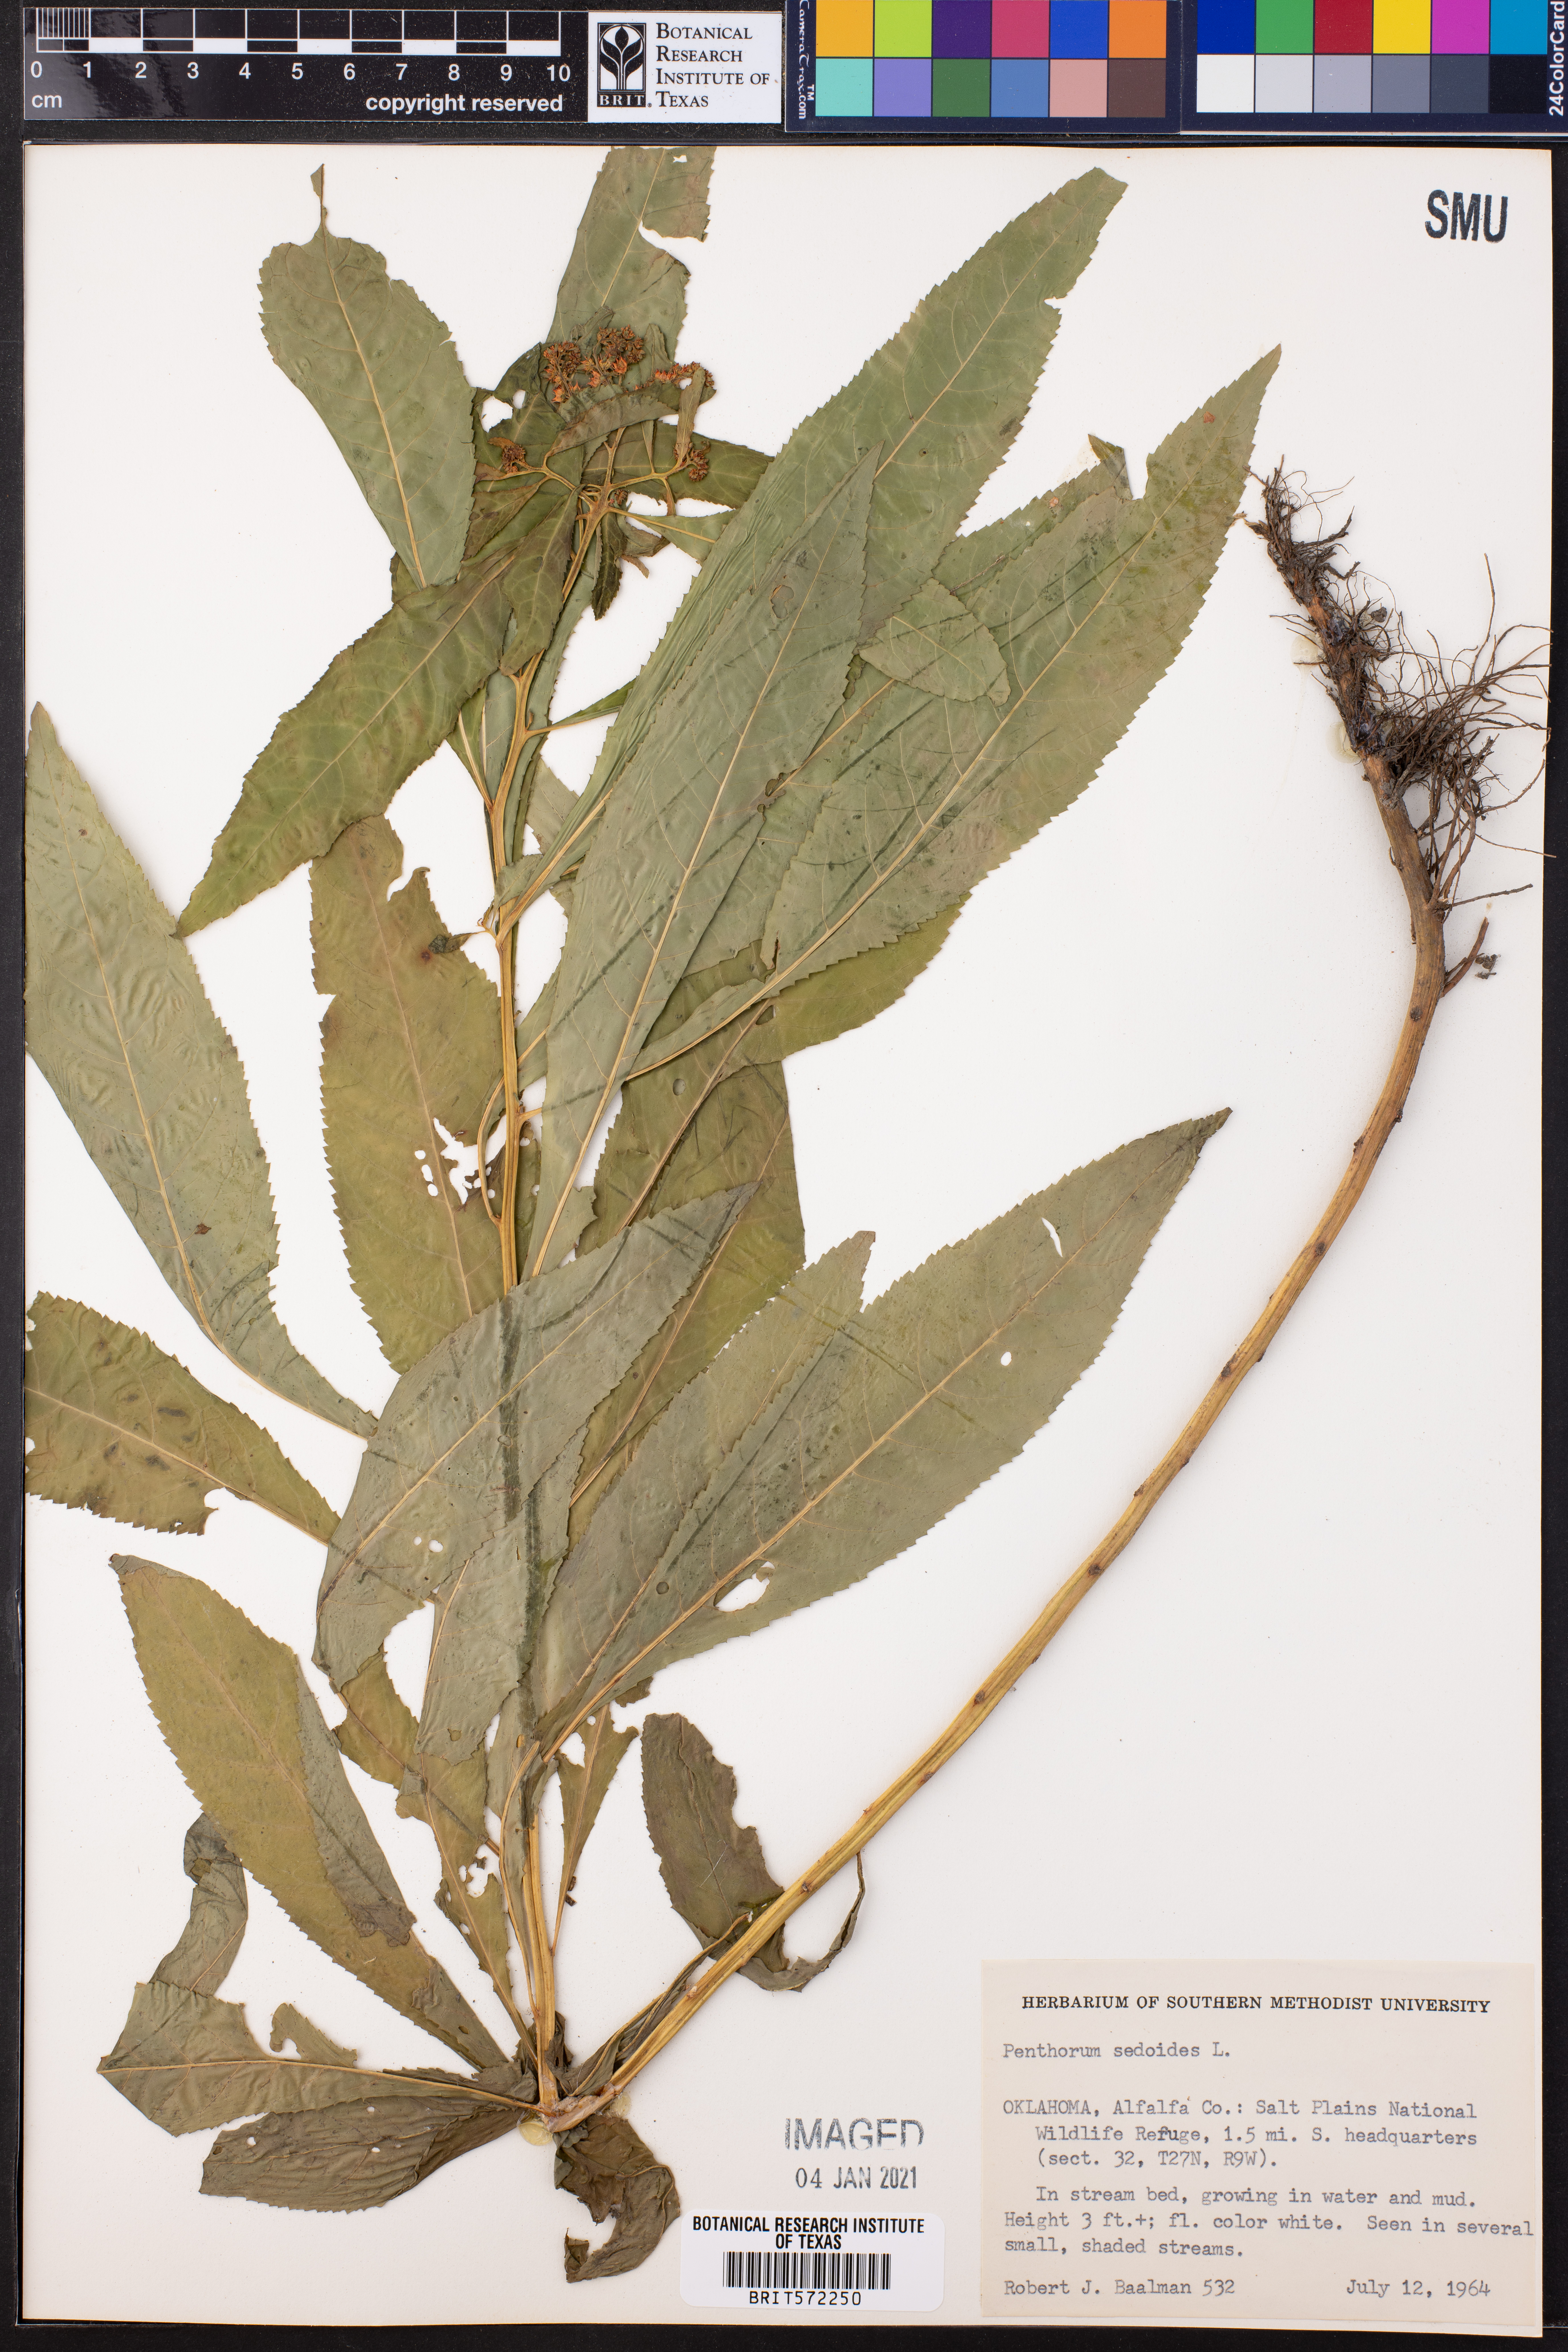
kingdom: Plantae
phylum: Tracheophyta
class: Magnoliopsida
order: Saxifragales
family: Penthoraceae
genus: Penthorum
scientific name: Penthorum sedoides
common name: Ditch stonecrop
